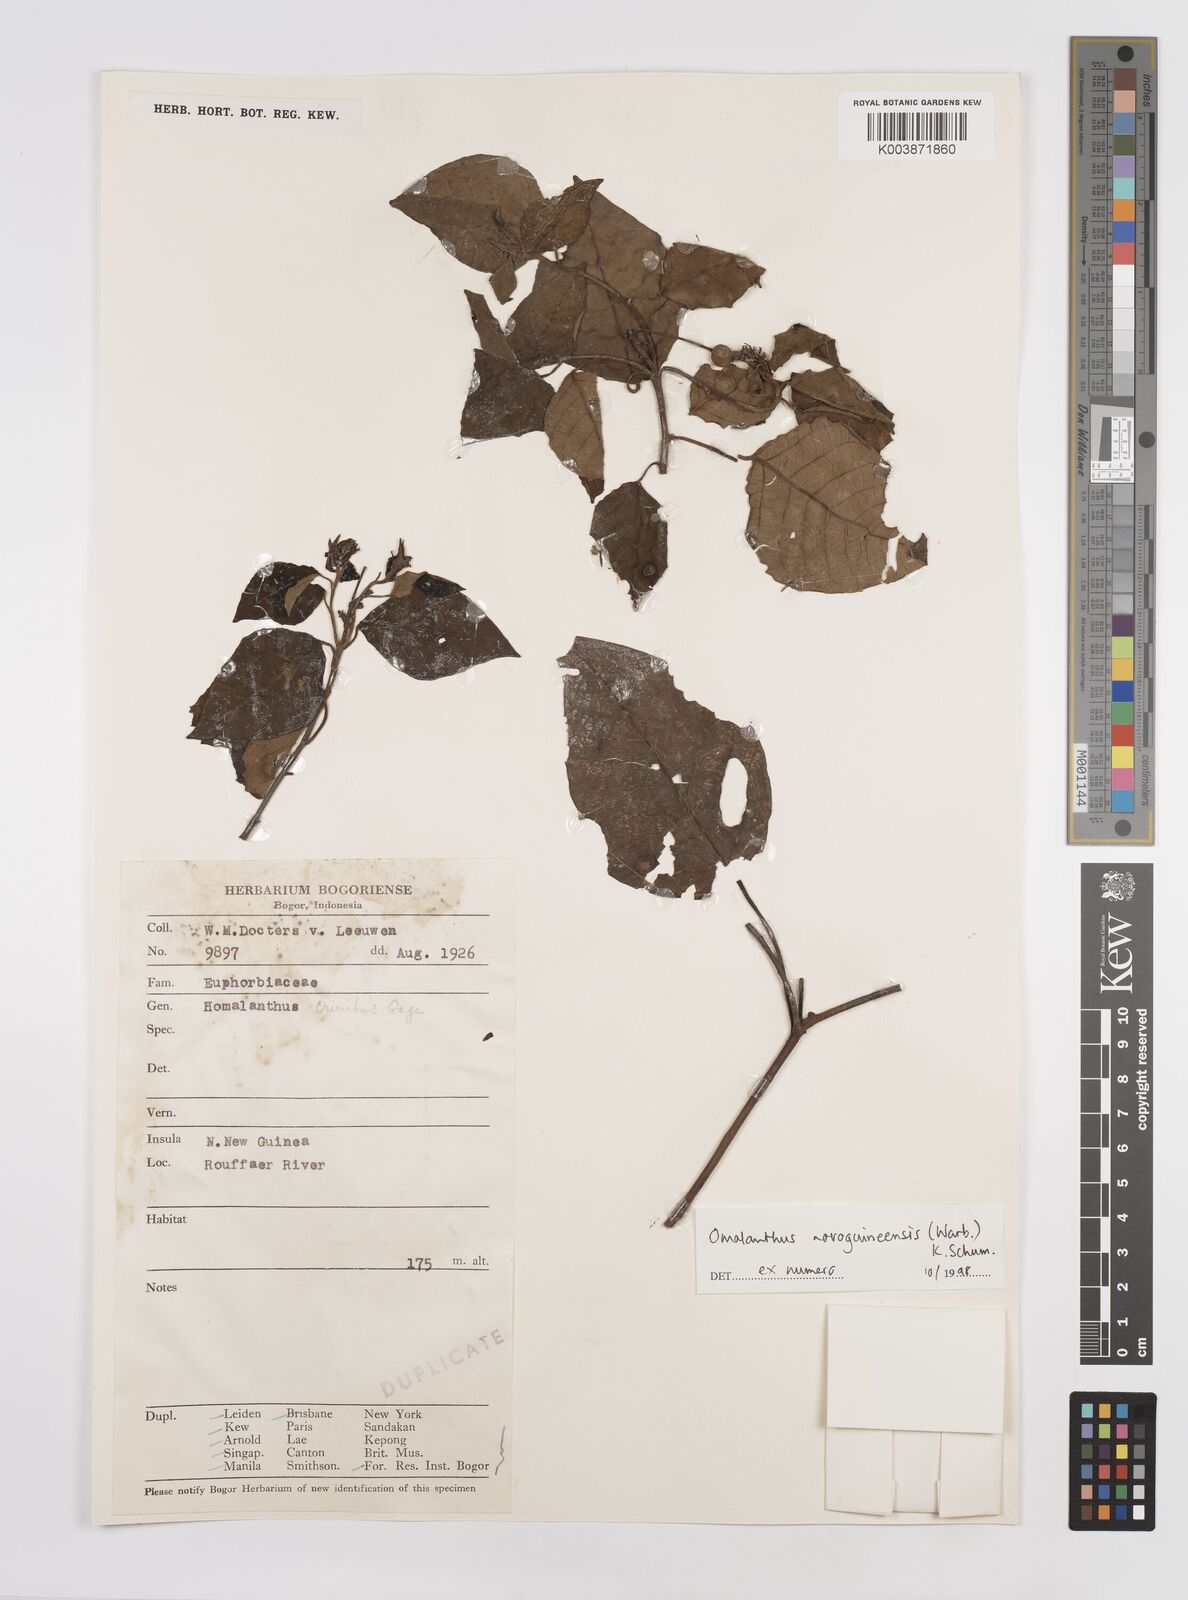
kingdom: Plantae
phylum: Tracheophyta
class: Magnoliopsida
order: Malpighiales
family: Euphorbiaceae
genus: Homalanthus
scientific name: Homalanthus novoguineensis
